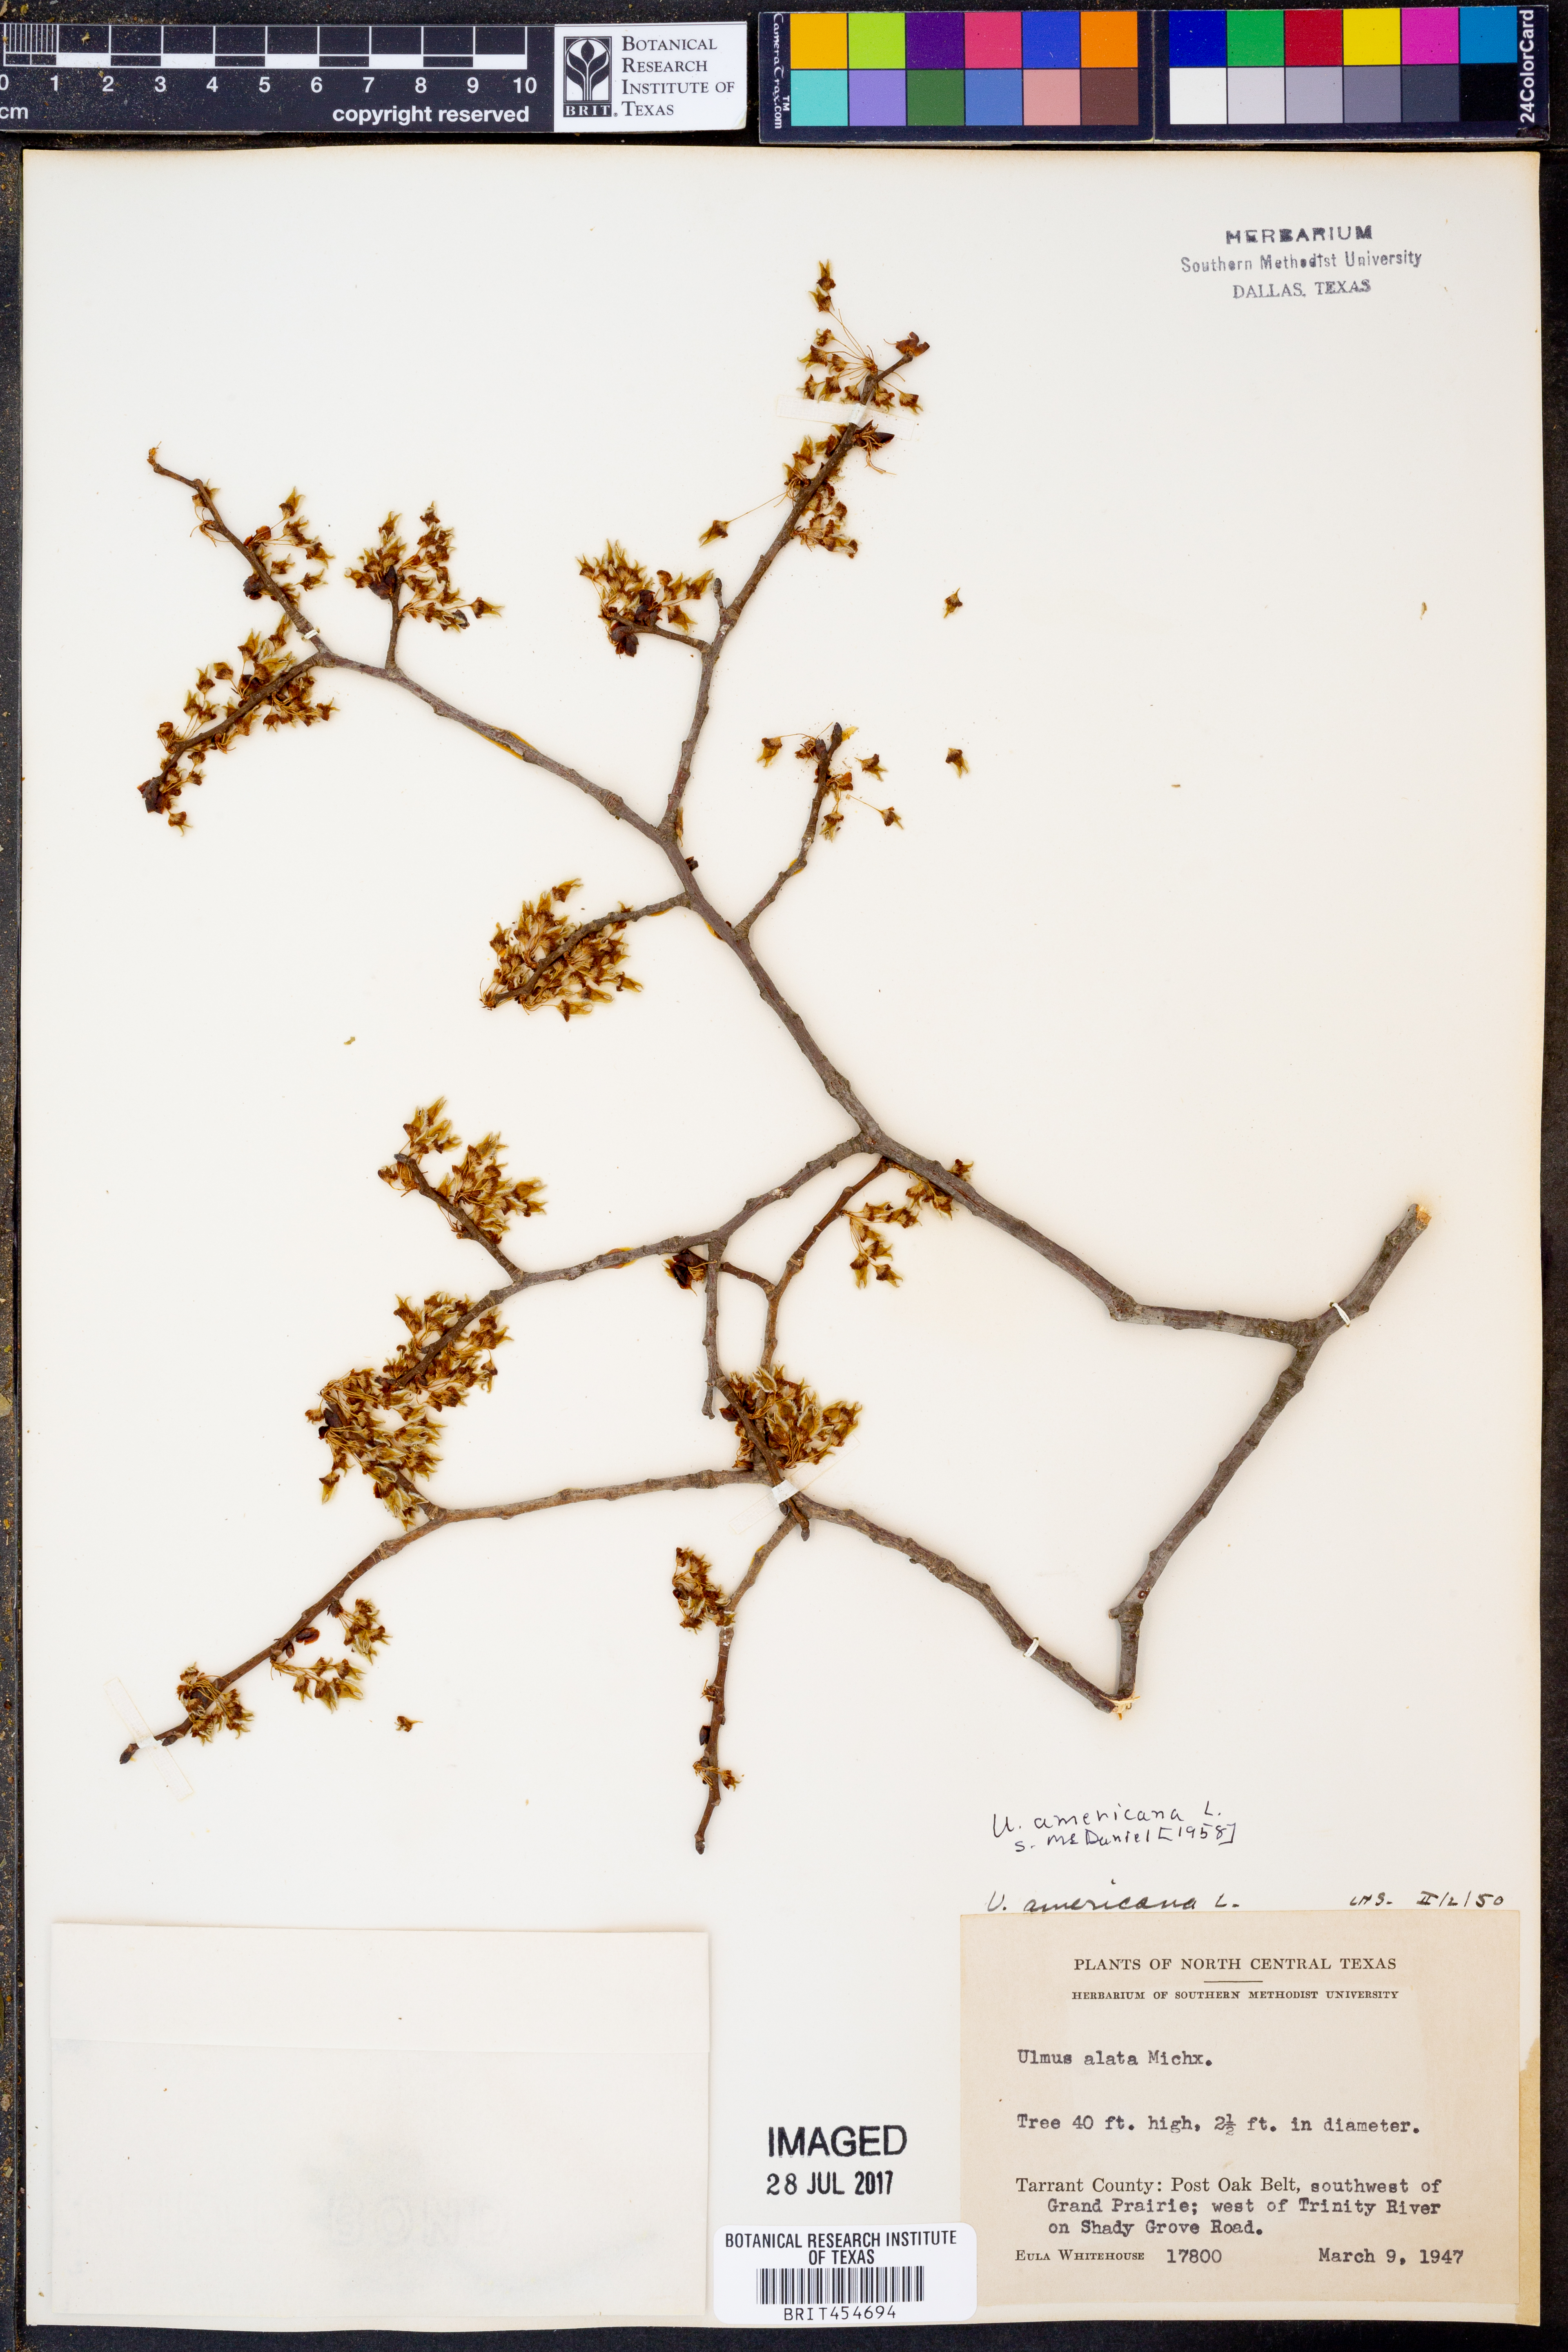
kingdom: Plantae
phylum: Tracheophyta
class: Magnoliopsida
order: Rosales
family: Ulmaceae
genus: Ulmus
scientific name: Ulmus americana
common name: American elm
